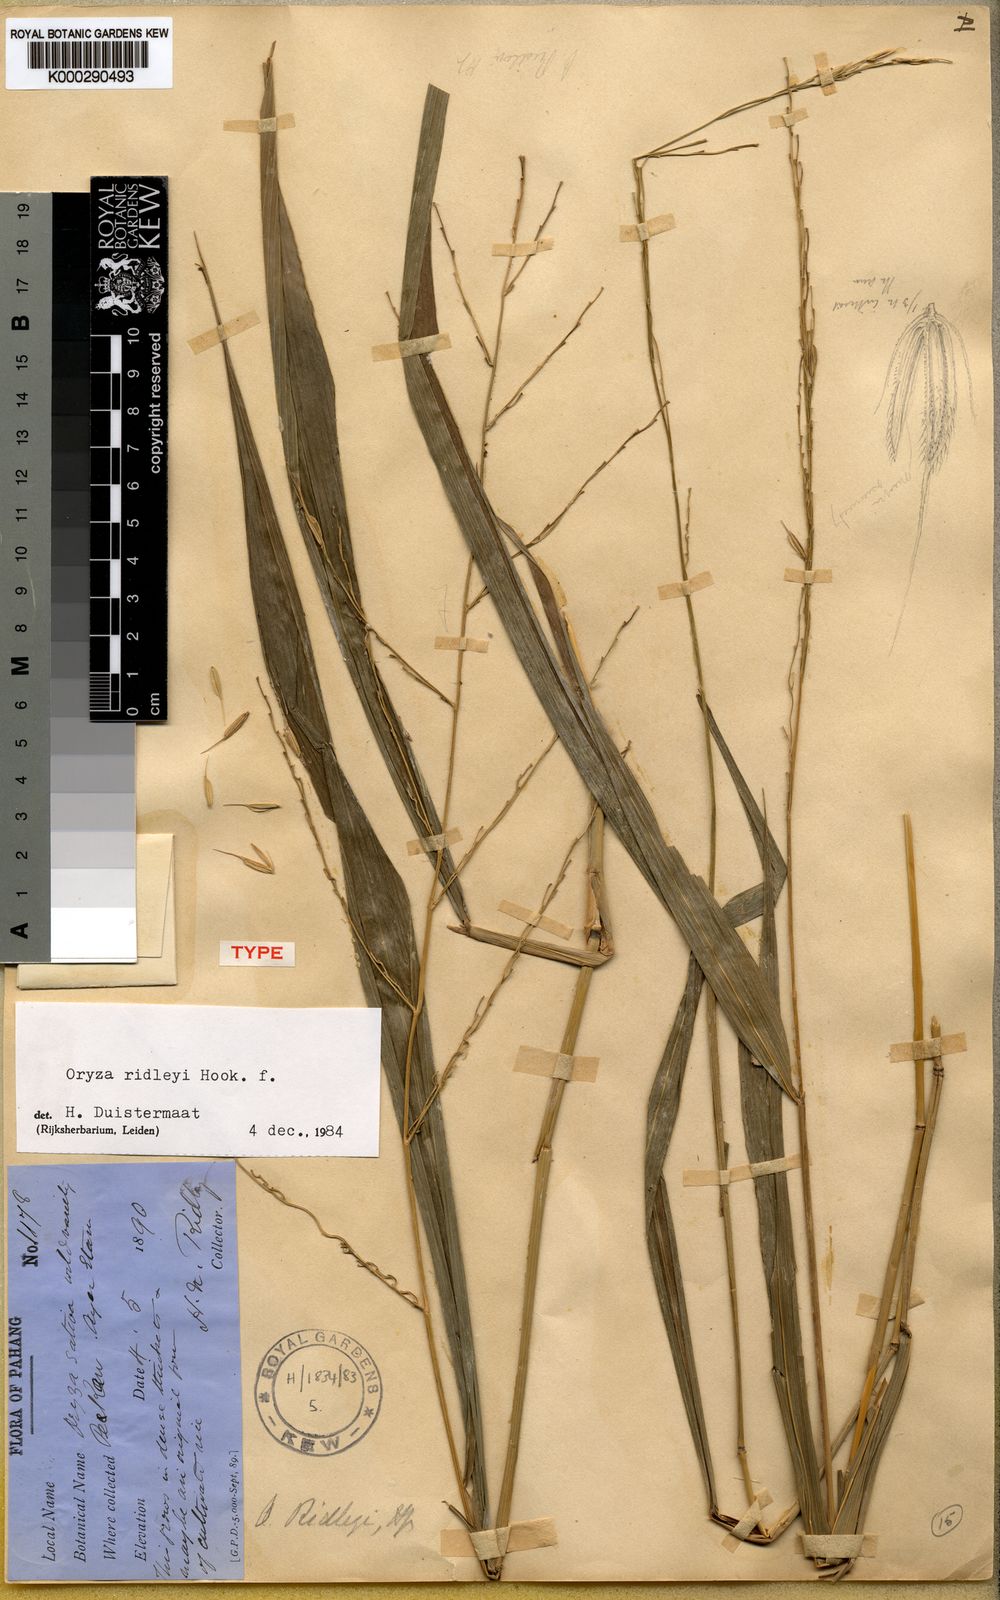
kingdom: Plantae
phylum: Tracheophyta
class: Liliopsida
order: Poales
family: Poaceae
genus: Oryza
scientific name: Oryza ridleyi
